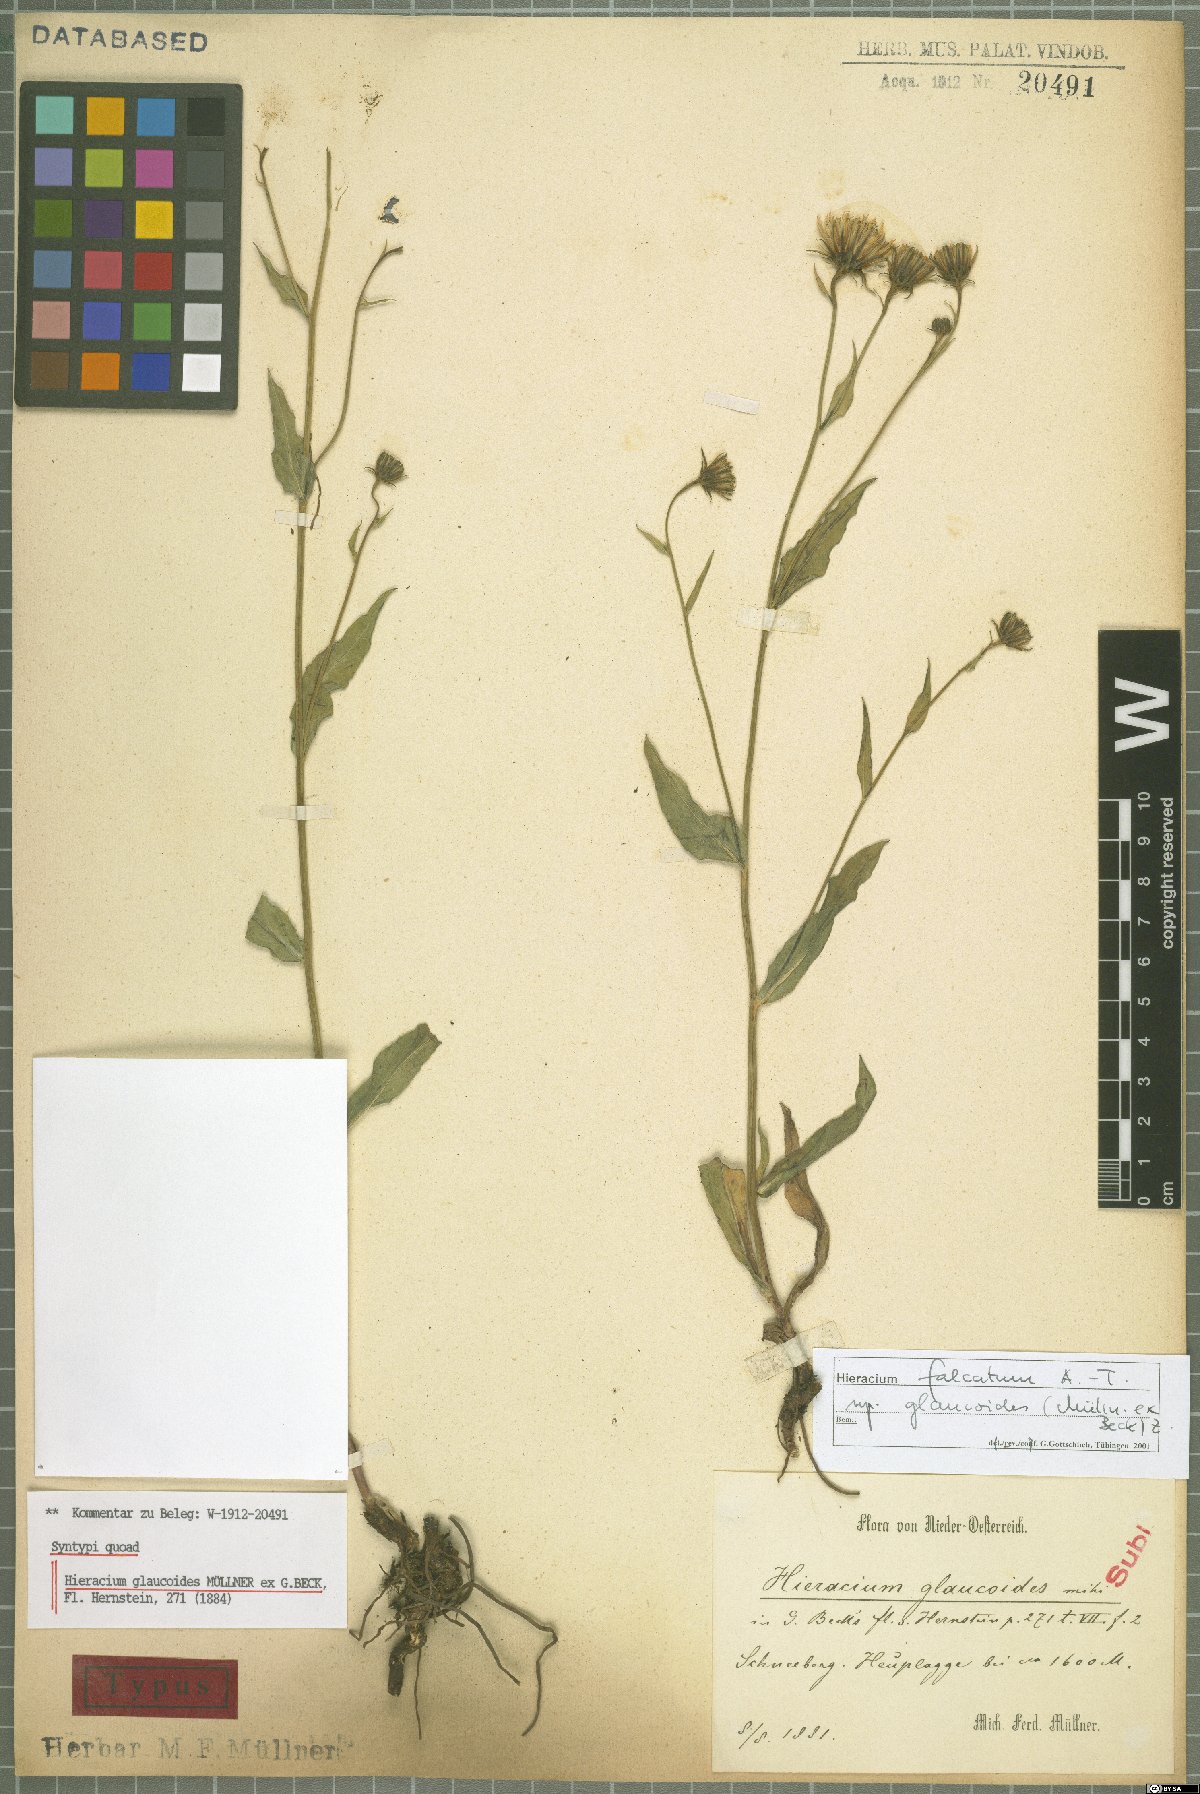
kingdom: Plantae
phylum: Tracheophyta
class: Magnoliopsida
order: Asterales
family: Asteraceae
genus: Hieracium
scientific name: Hieracium falcatum
